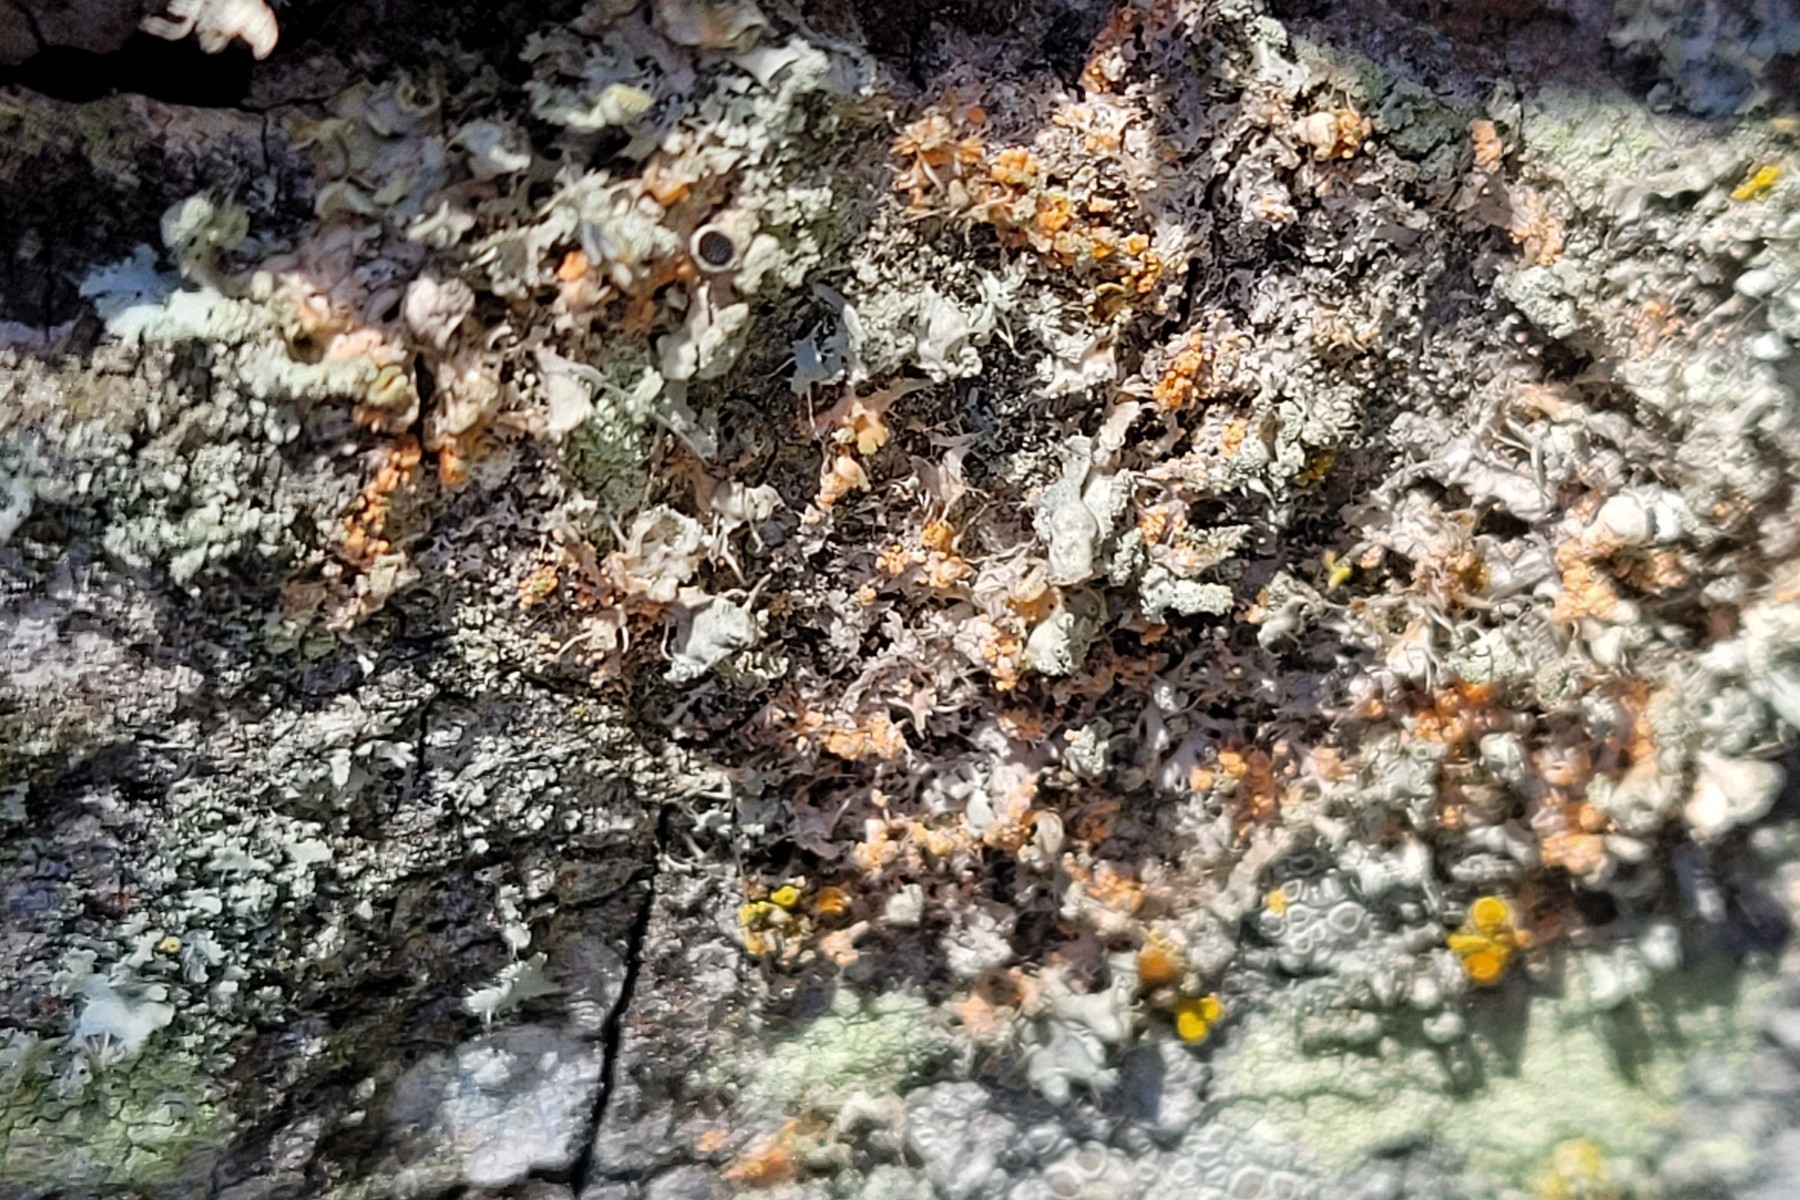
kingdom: Fungi
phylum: Basidiomycota
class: Agaricomycetes
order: Corticiales
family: Corticiaceae
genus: Erythricium
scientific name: Erythricium aurantiacum
